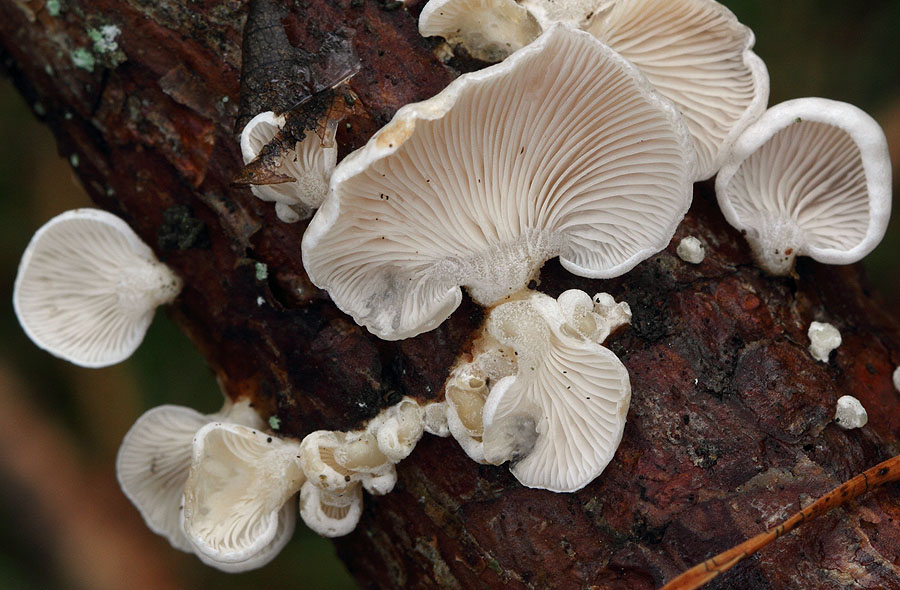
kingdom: Fungi
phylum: Basidiomycota
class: Agaricomycetes
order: Agaricales
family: Mycenaceae
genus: Panellus
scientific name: Panellus mitis
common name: mild epaulethat
